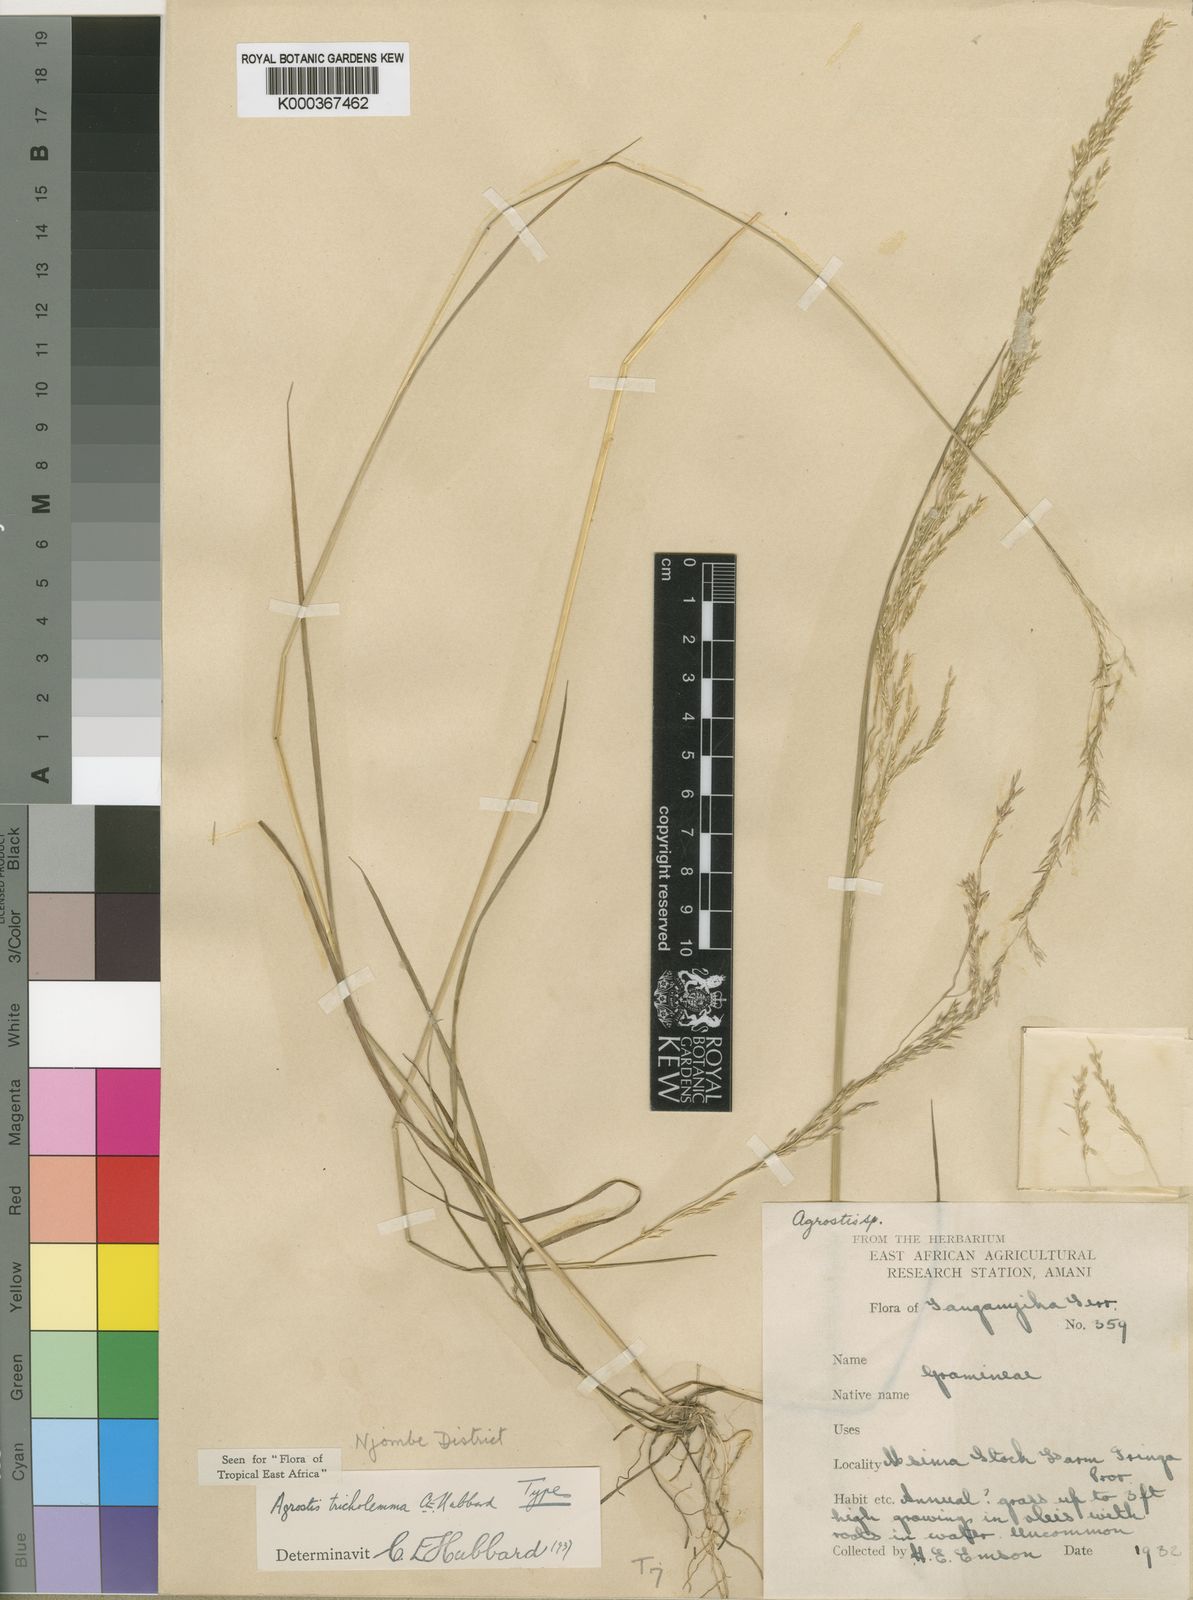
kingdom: Plantae
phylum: Tracheophyta
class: Liliopsida
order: Poales
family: Poaceae
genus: Agrostis
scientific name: Agrostis keniensis
